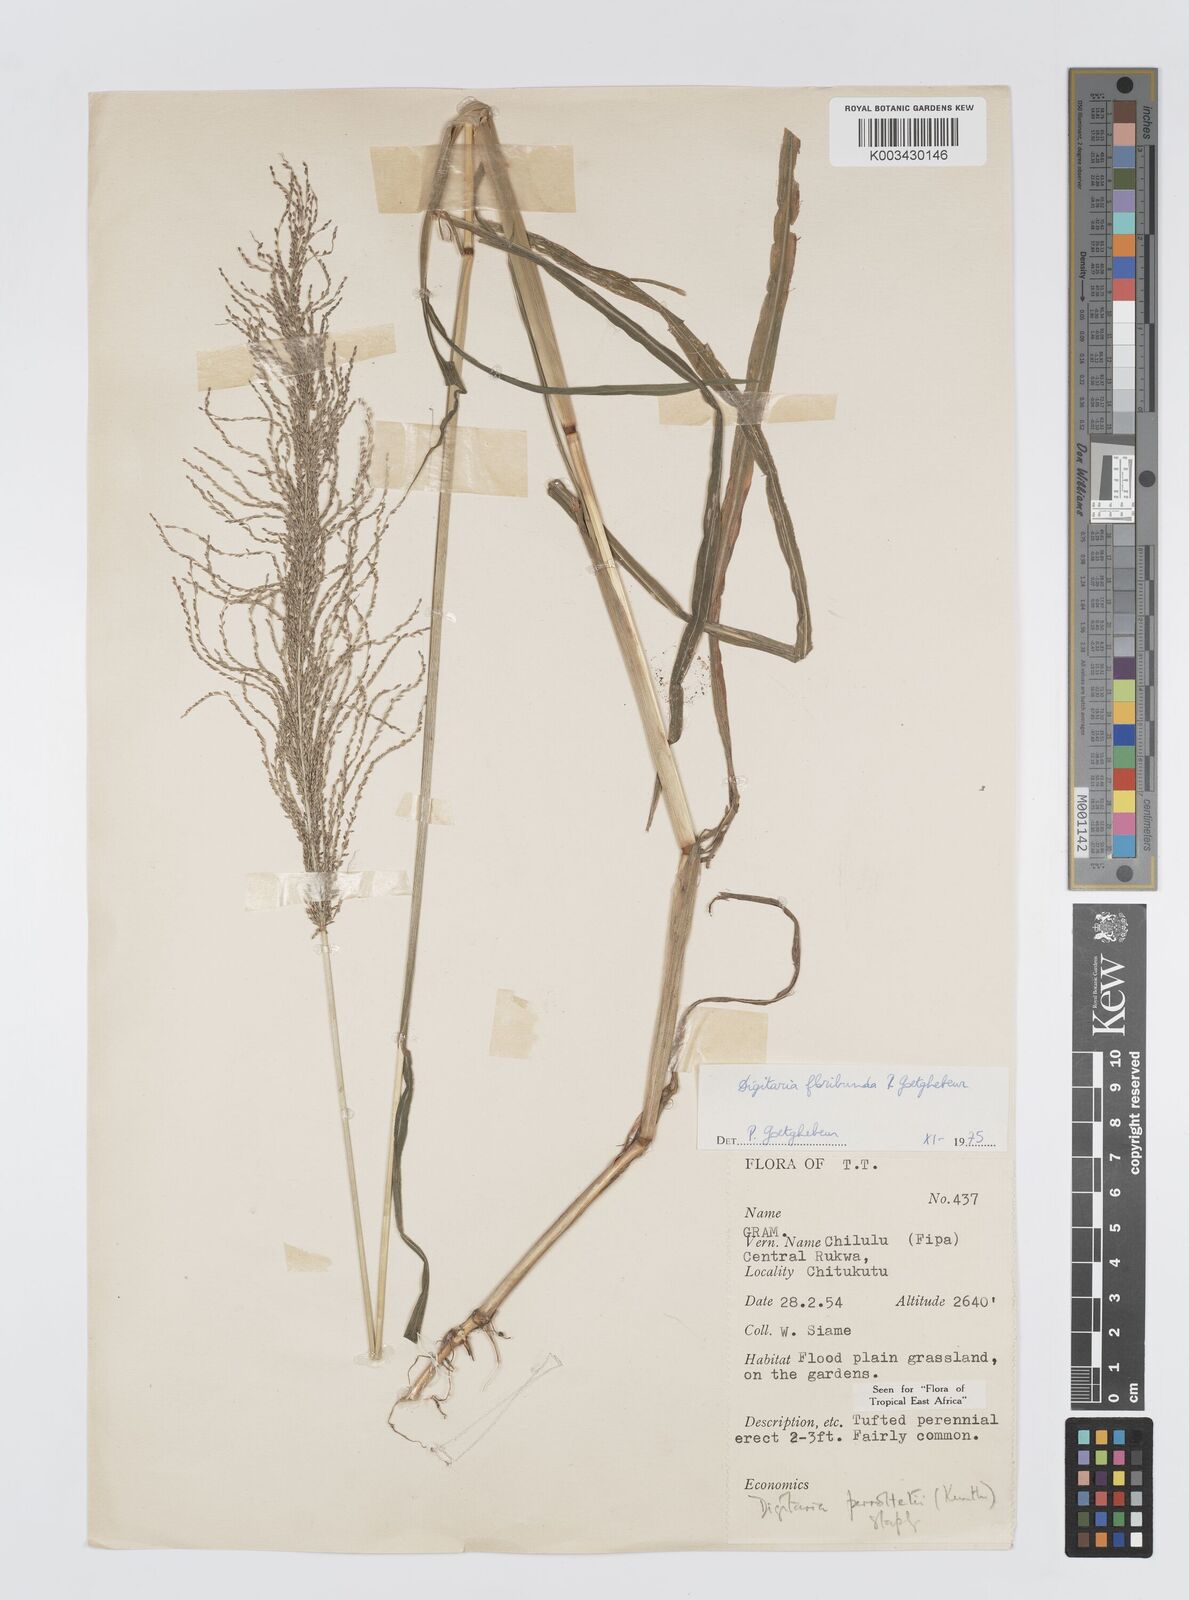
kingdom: Plantae
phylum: Tracheophyta
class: Liliopsida
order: Poales
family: Poaceae
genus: Digitaria
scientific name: Digitaria perrottetii
